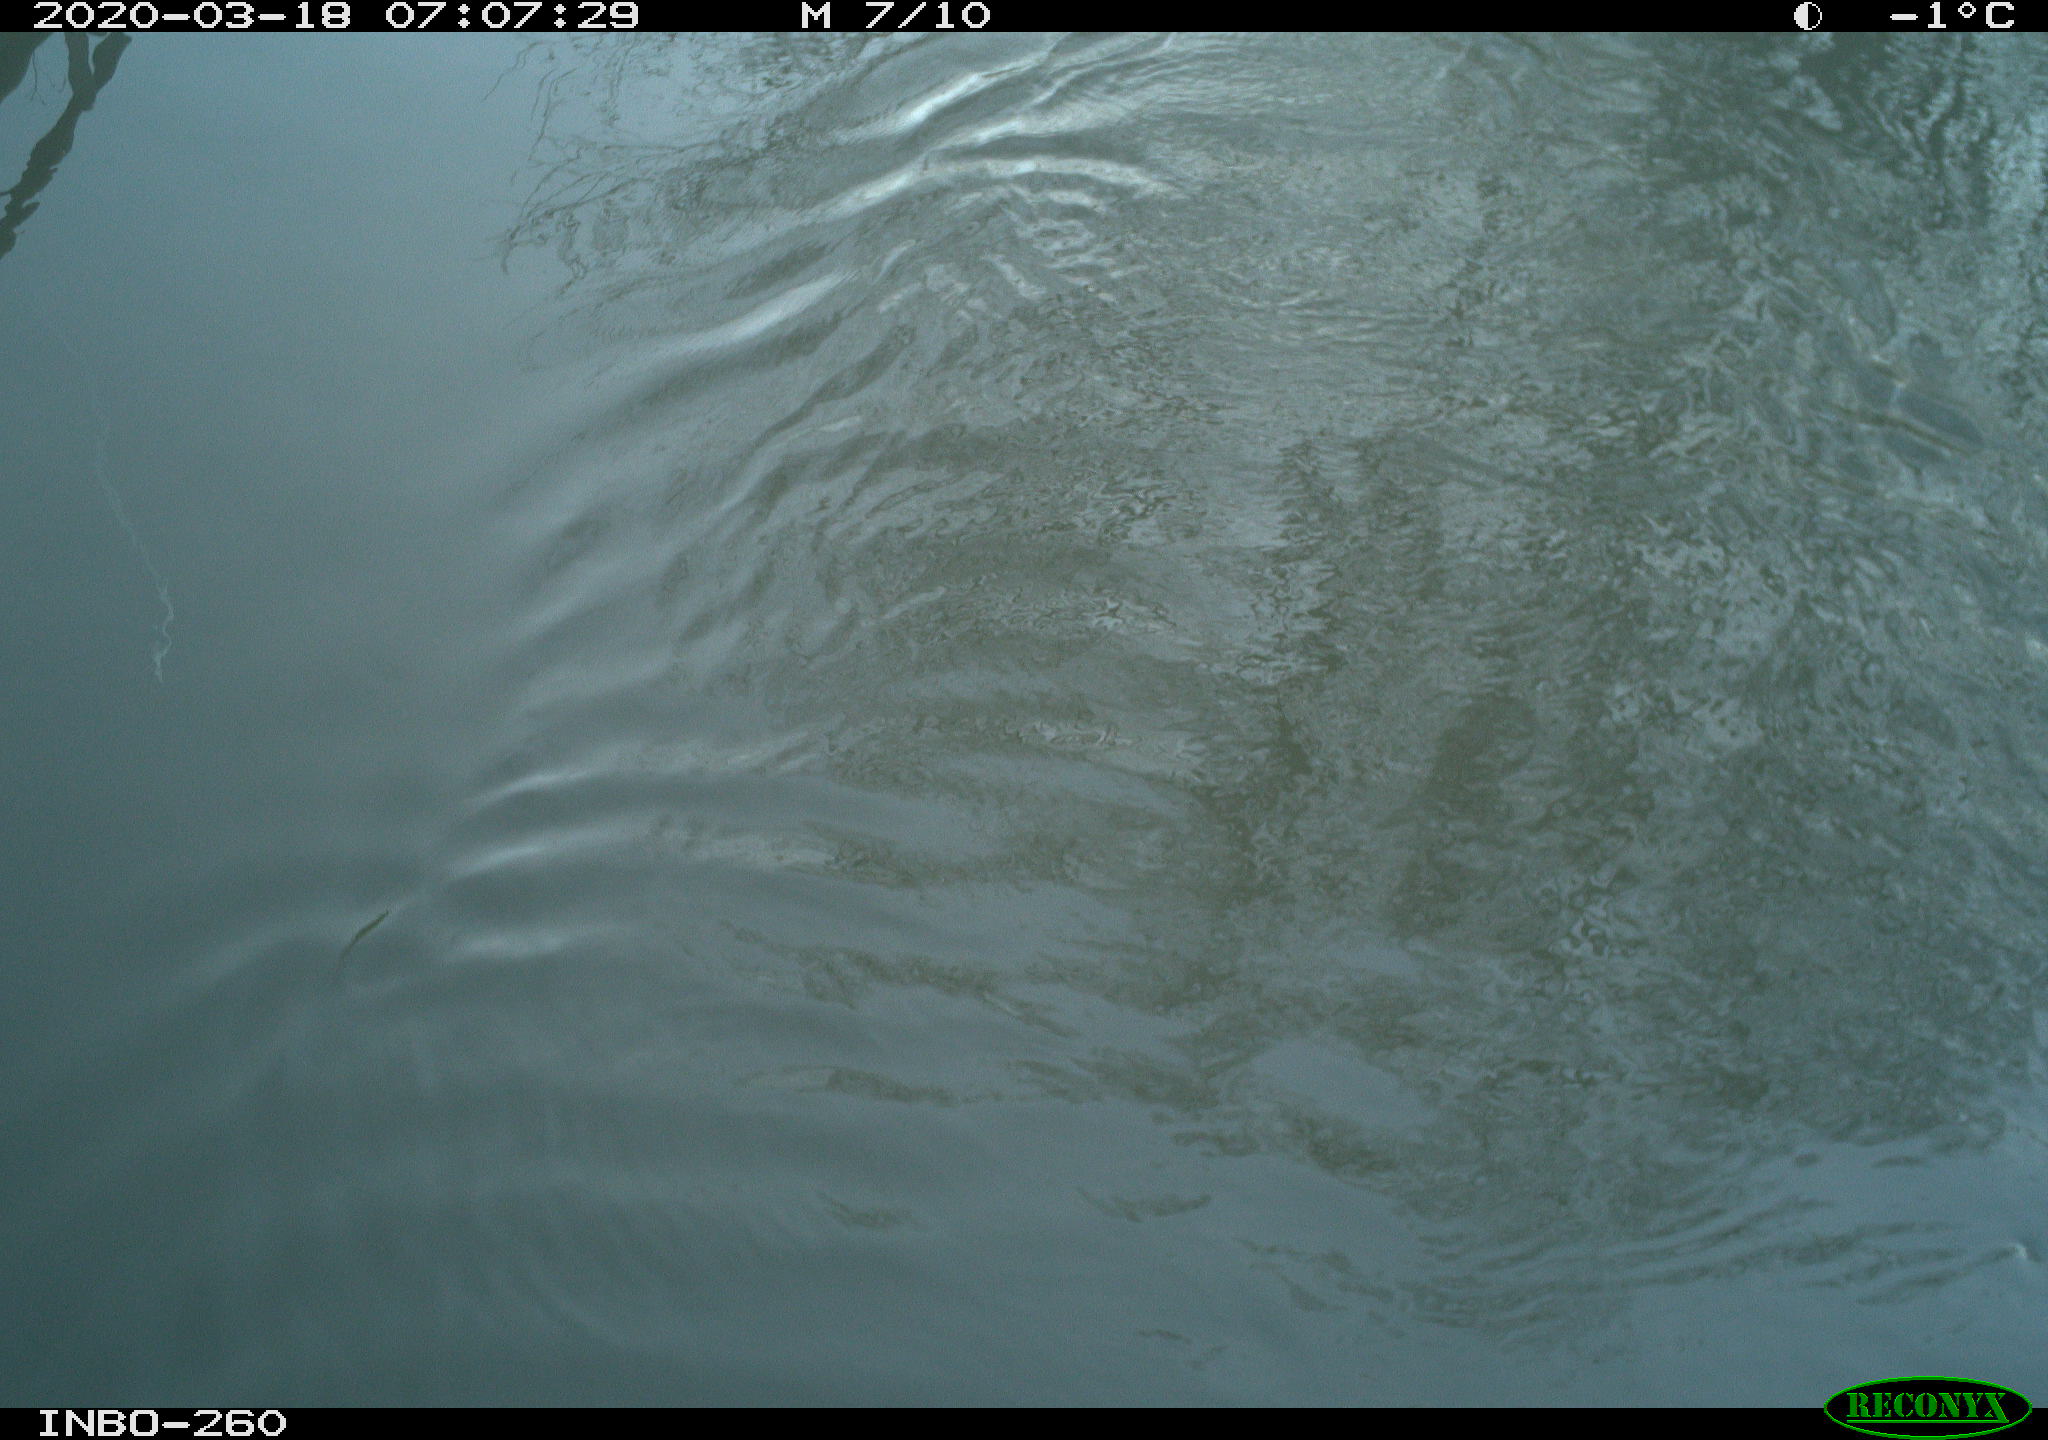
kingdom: Animalia
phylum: Chordata
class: Aves
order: Anseriformes
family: Anatidae
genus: Anas
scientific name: Anas platyrhynchos
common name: Mallard
